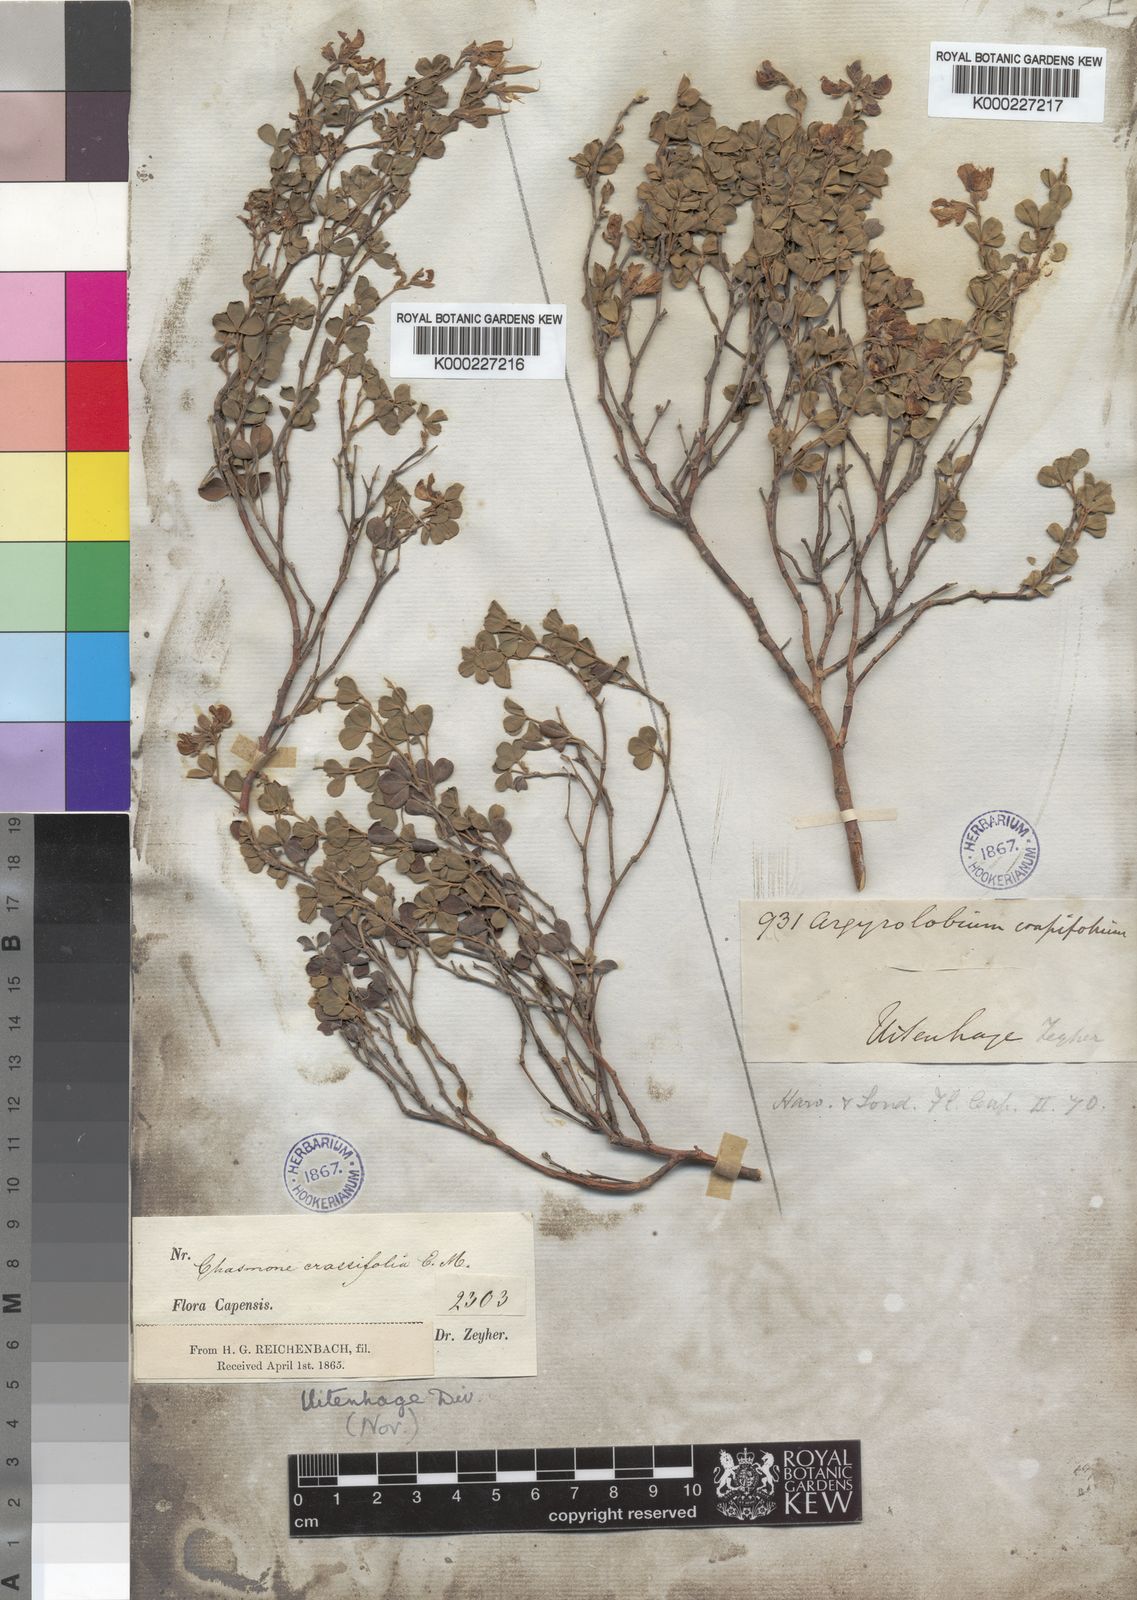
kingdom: Plantae
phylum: Tracheophyta
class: Magnoliopsida
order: Fabales
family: Fabaceae
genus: Argyrolobium
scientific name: Argyrolobium crassifolium
